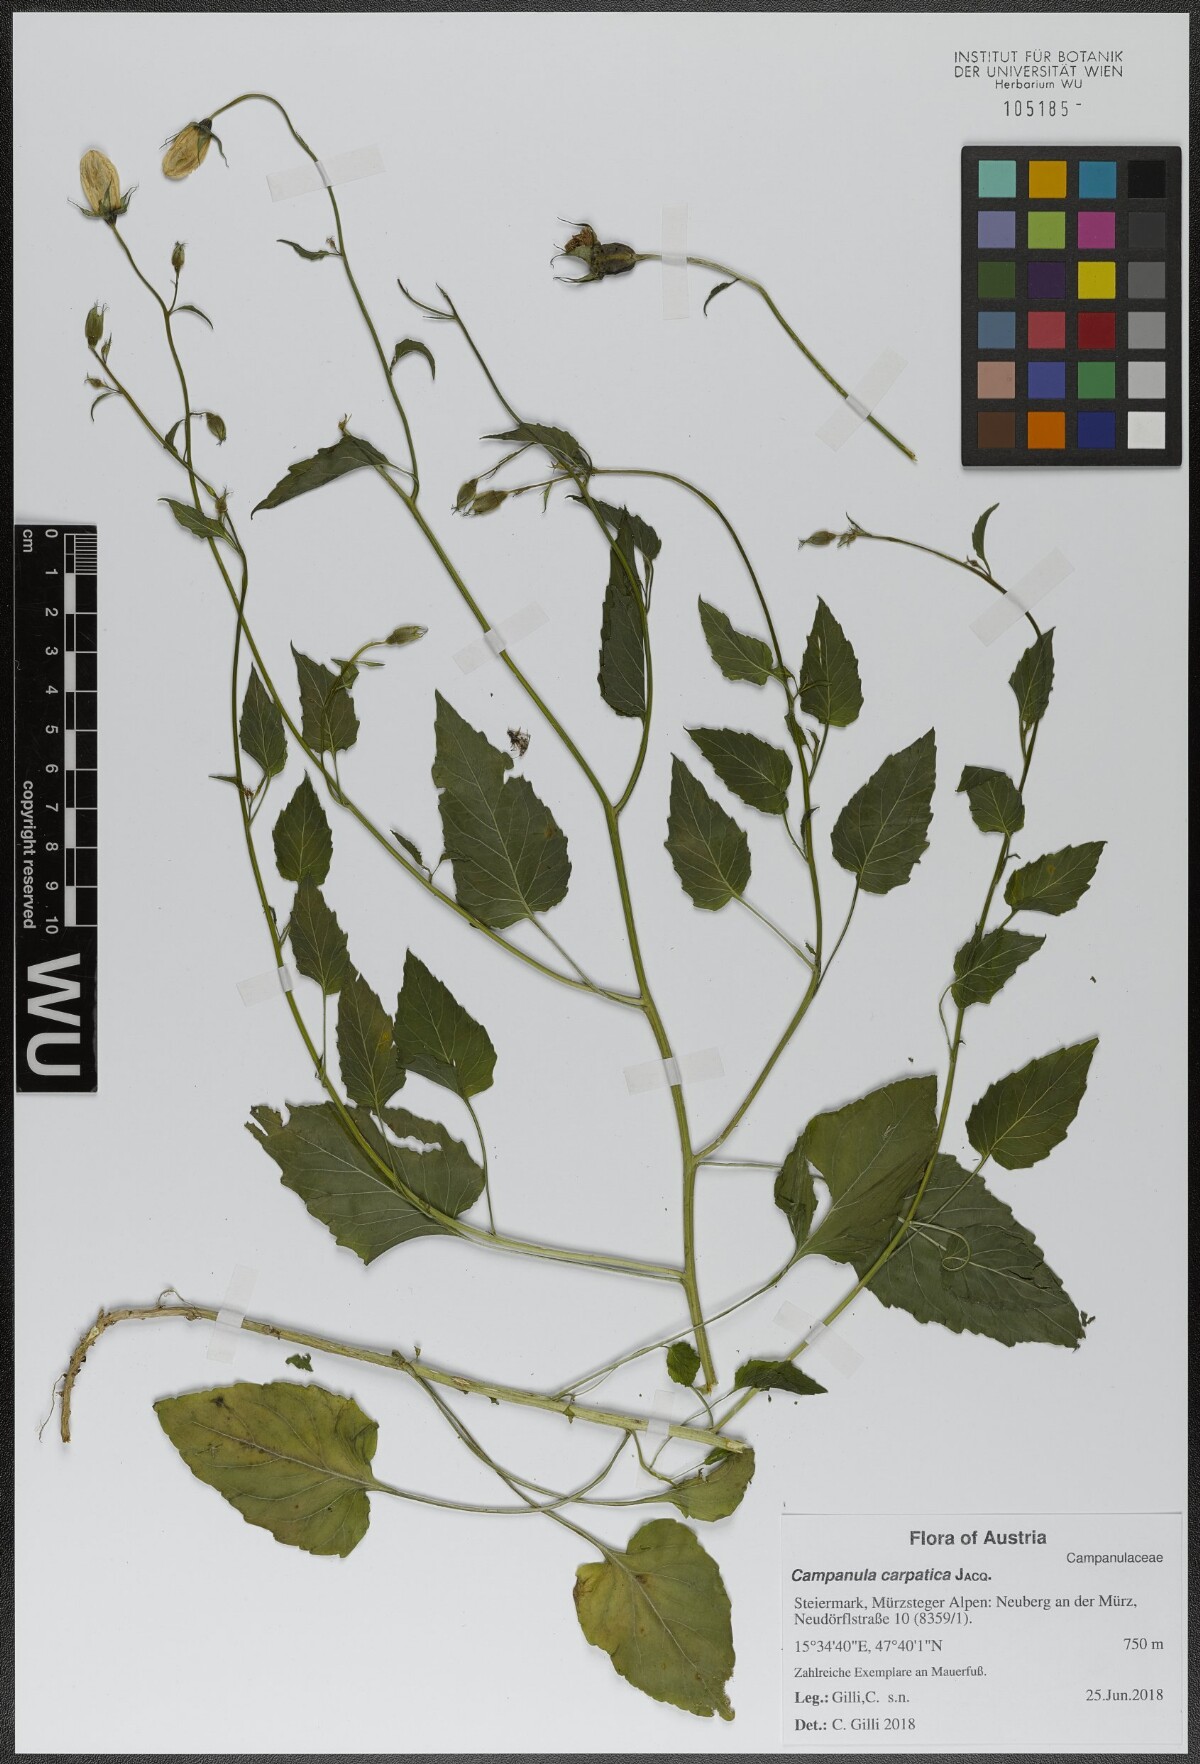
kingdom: Plantae
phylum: Tracheophyta
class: Magnoliopsida
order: Asterales
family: Campanulaceae
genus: Campanula
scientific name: Campanula carpatica
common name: Tussock bellflower
